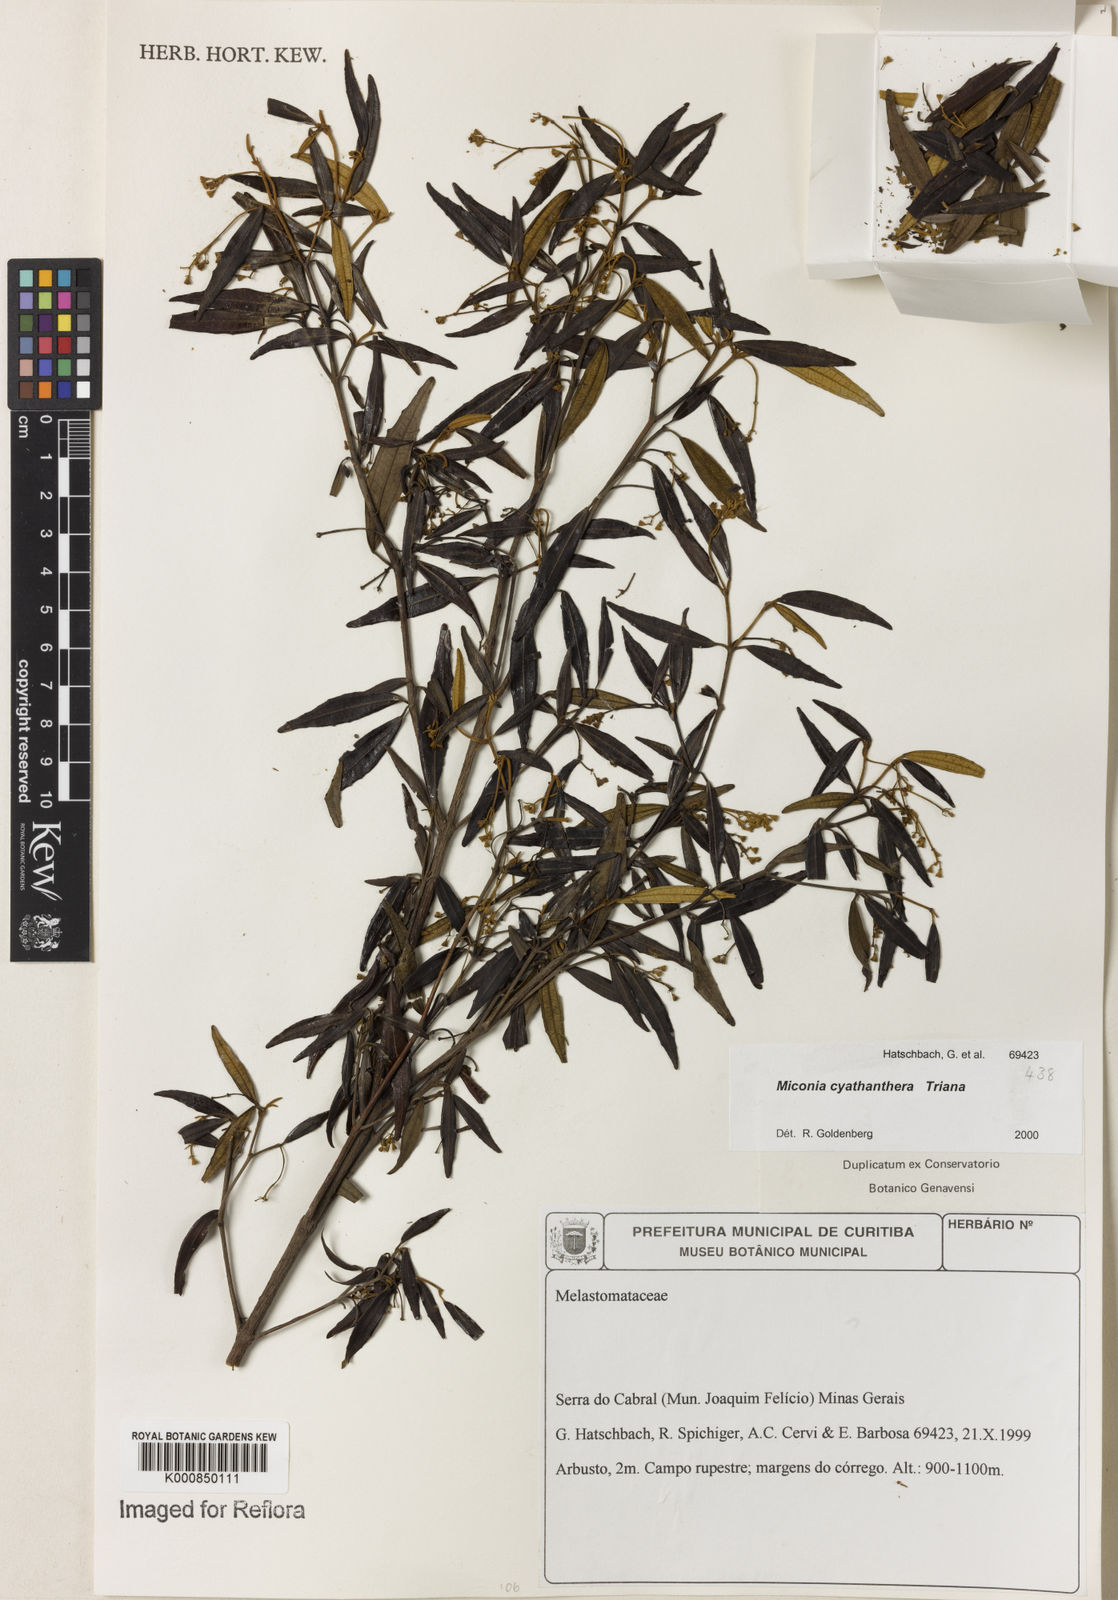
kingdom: Plantae
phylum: Tracheophyta
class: Magnoliopsida
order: Myrtales
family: Melastomataceae
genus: Miconia
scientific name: Miconia cyathanthera
